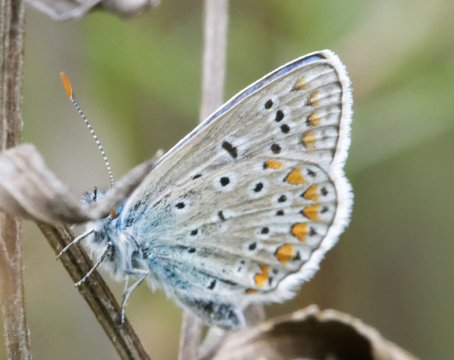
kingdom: Animalia
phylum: Arthropoda
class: Insecta
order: Lepidoptera
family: Lycaenidae
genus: Polyommatus
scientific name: Polyommatus icarus
